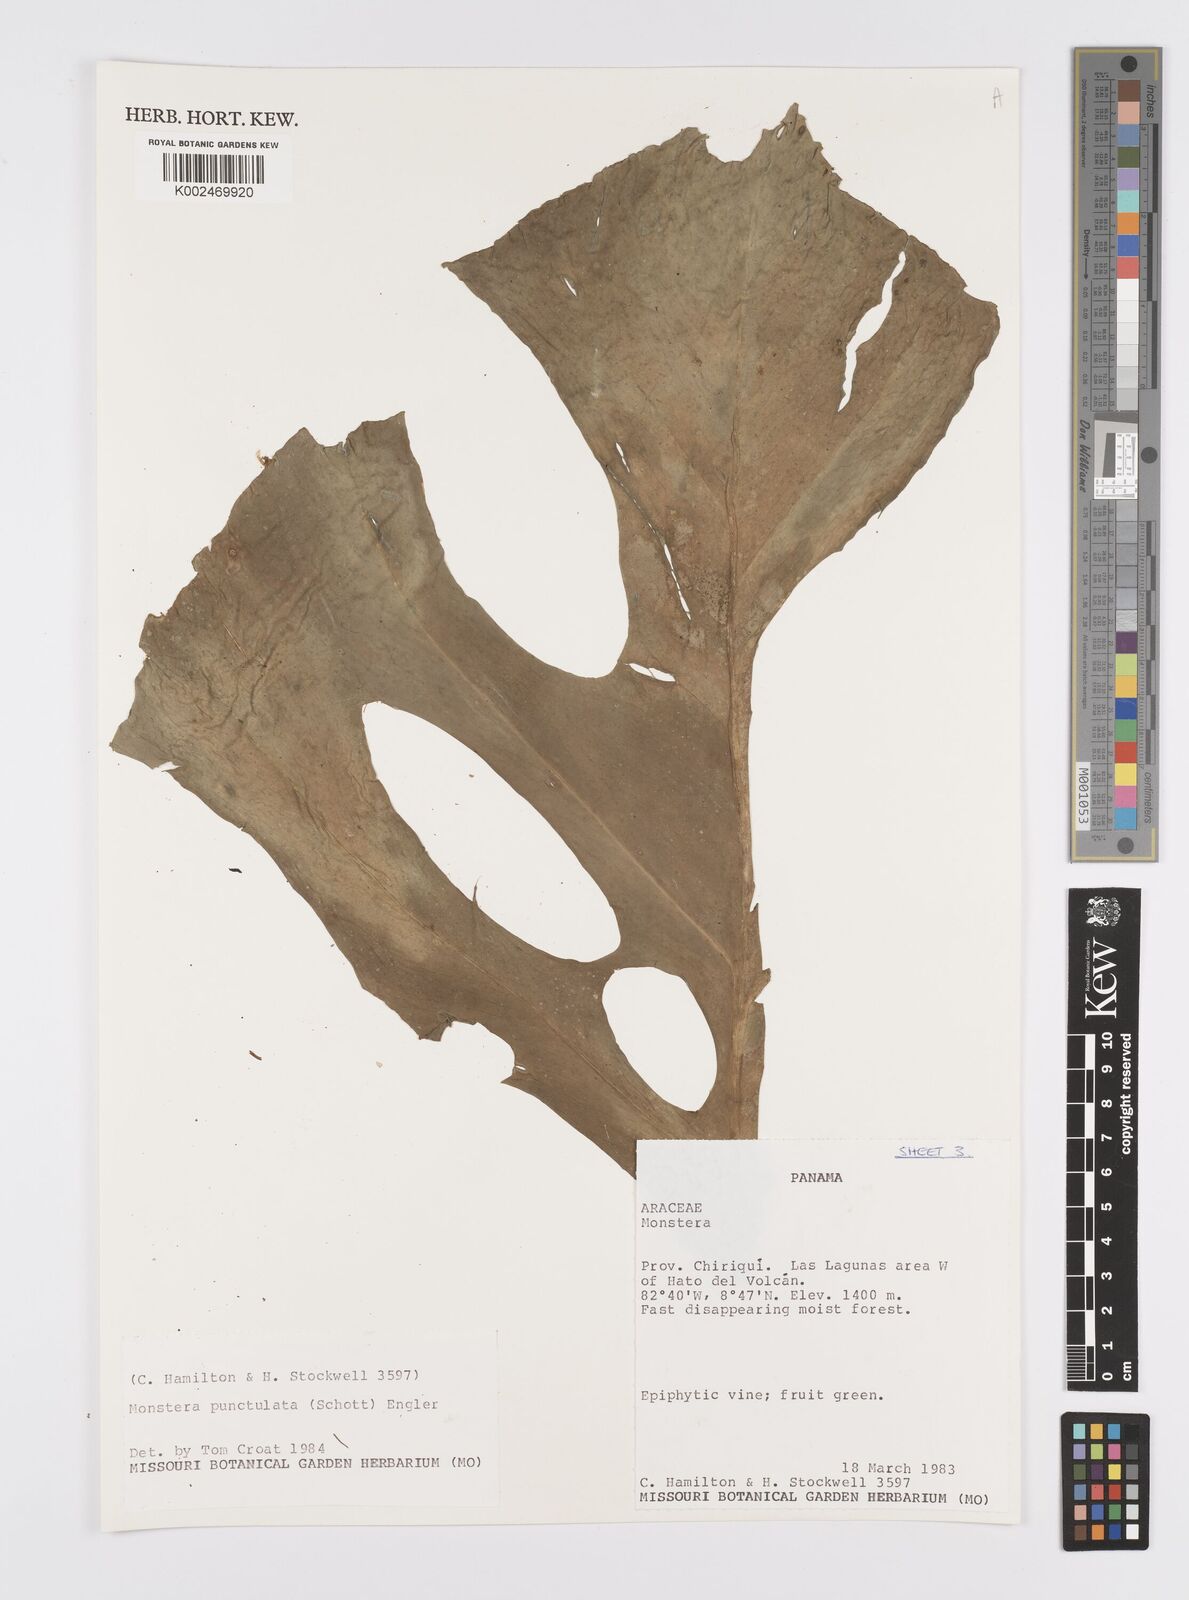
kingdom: Plantae
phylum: Tracheophyta
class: Liliopsida
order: Alismatales
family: Araceae
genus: Monstera
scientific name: Monstera punctulata
